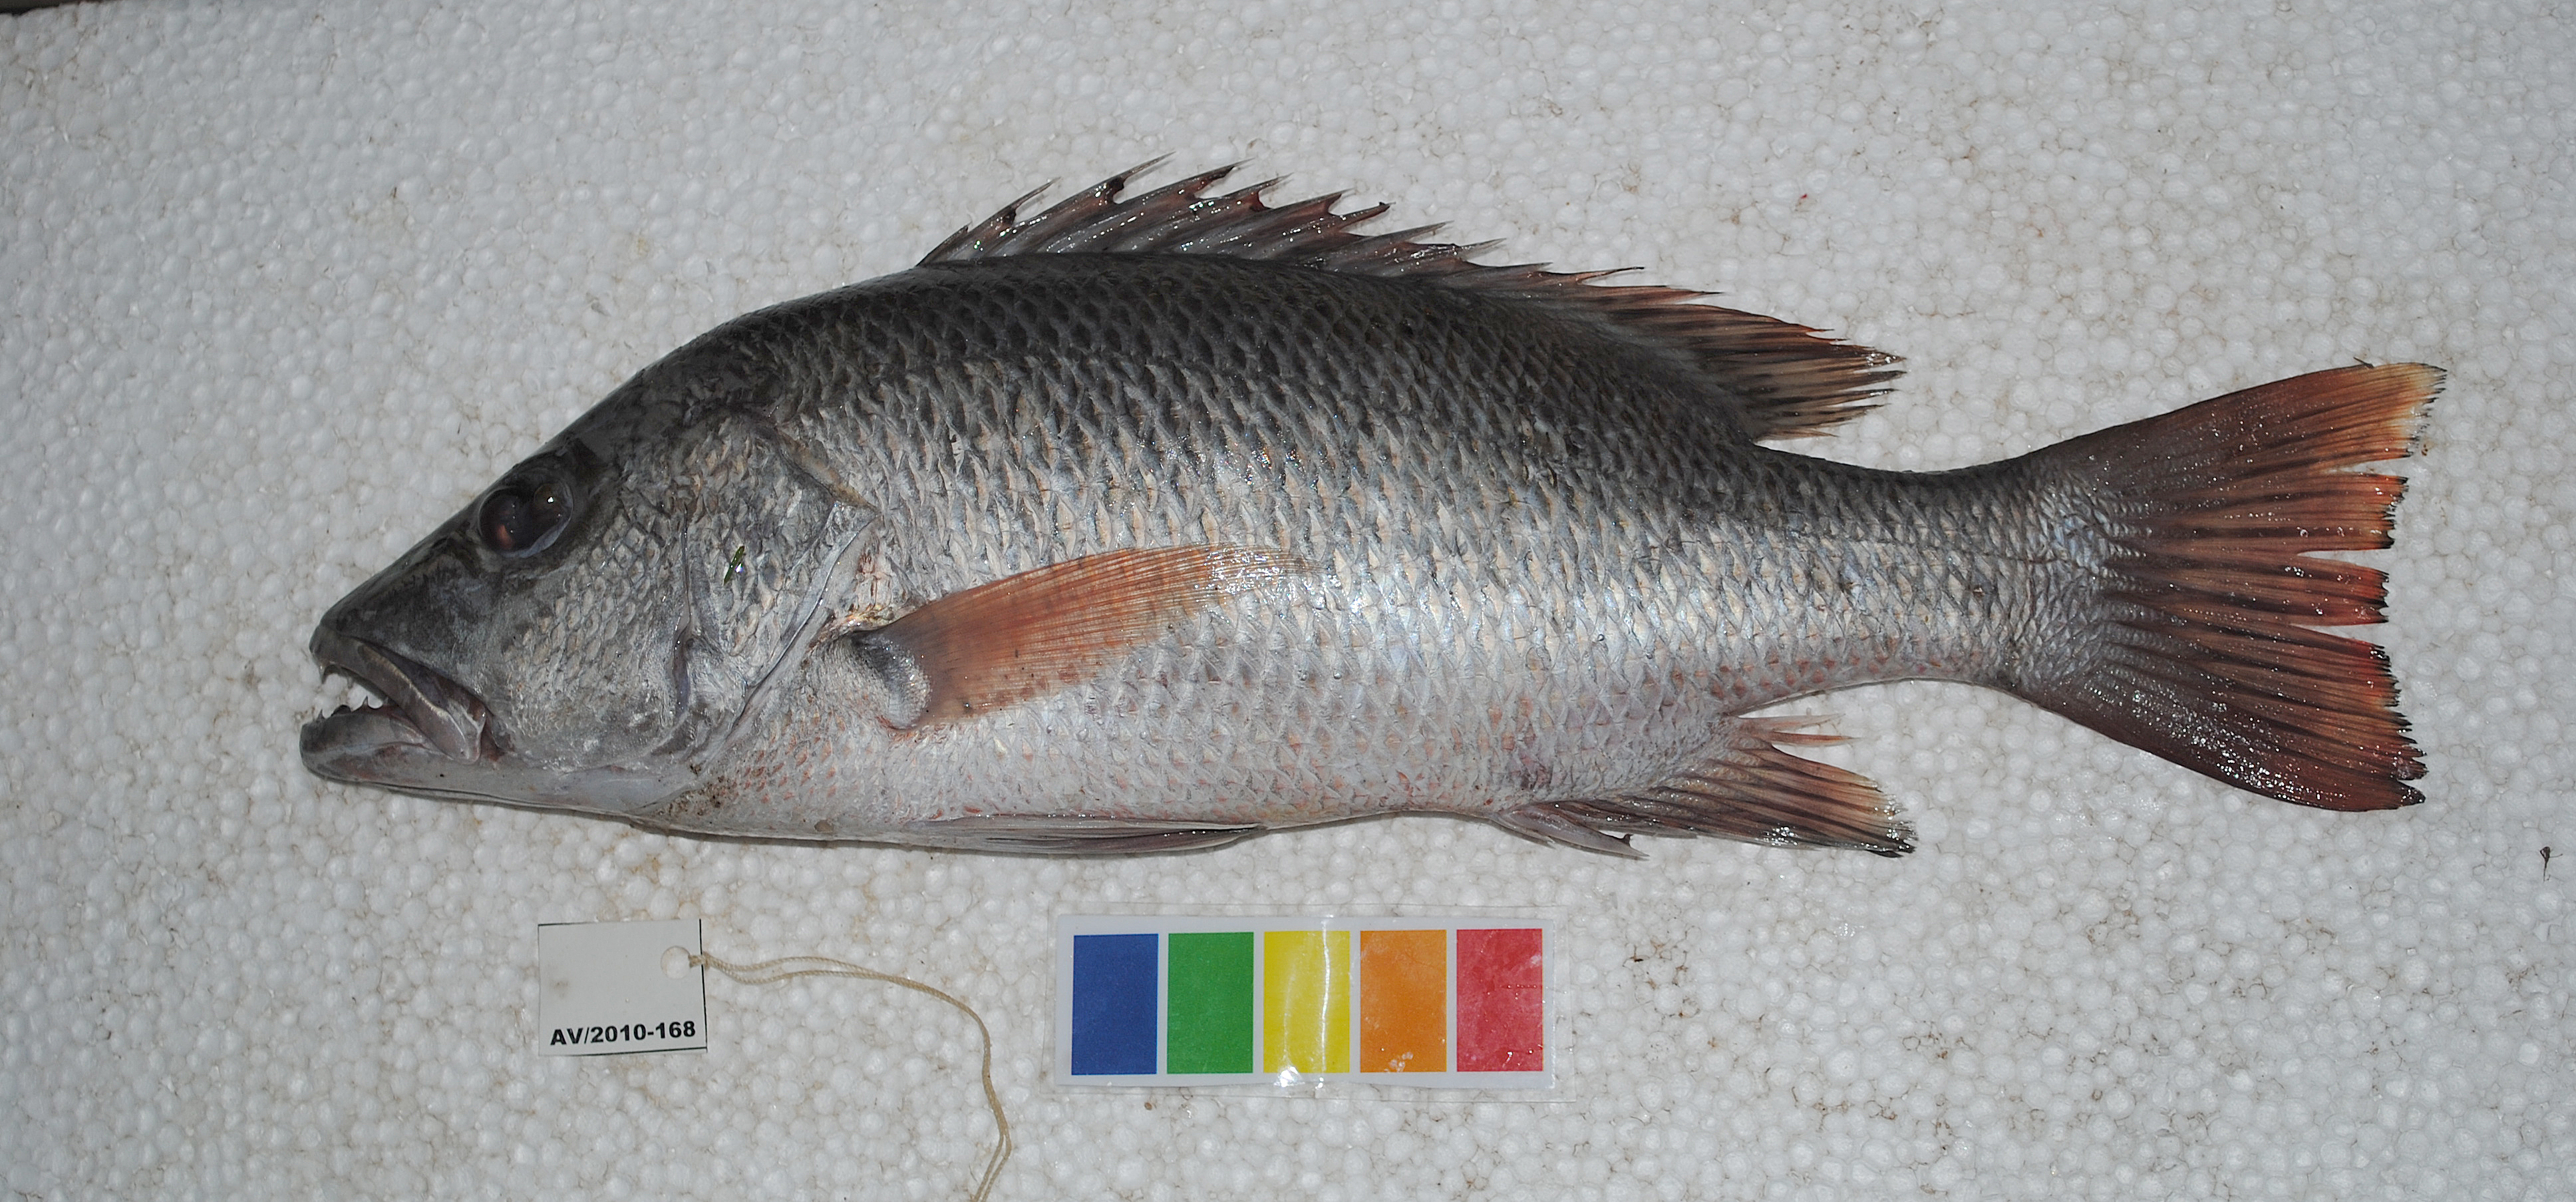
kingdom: Animalia
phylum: Chordata
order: Perciformes
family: Lutjanidae
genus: Lutjanus
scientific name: Lutjanus argentimaculatus
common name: Mangrove red snapper
